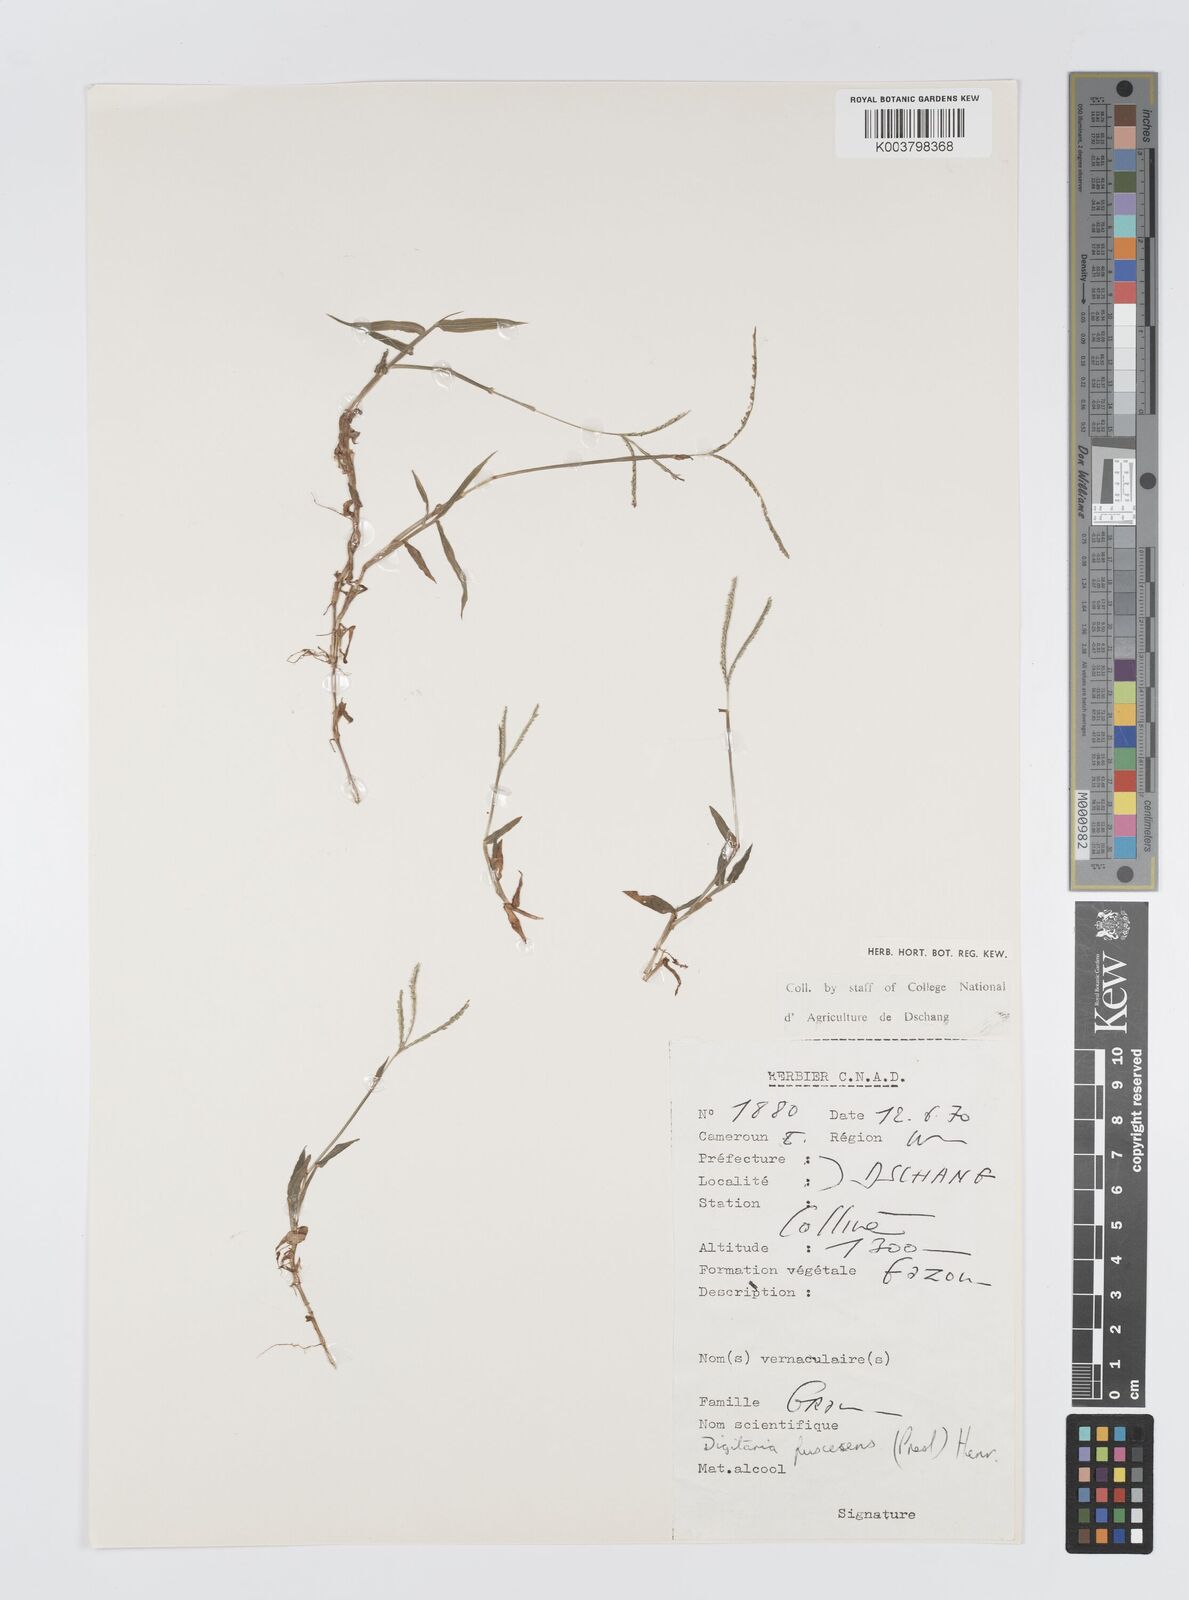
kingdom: Plantae
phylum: Tracheophyta
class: Liliopsida
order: Poales
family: Poaceae
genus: Digitaria
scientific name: Digitaria fuscescens
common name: Yellow crabgrass
